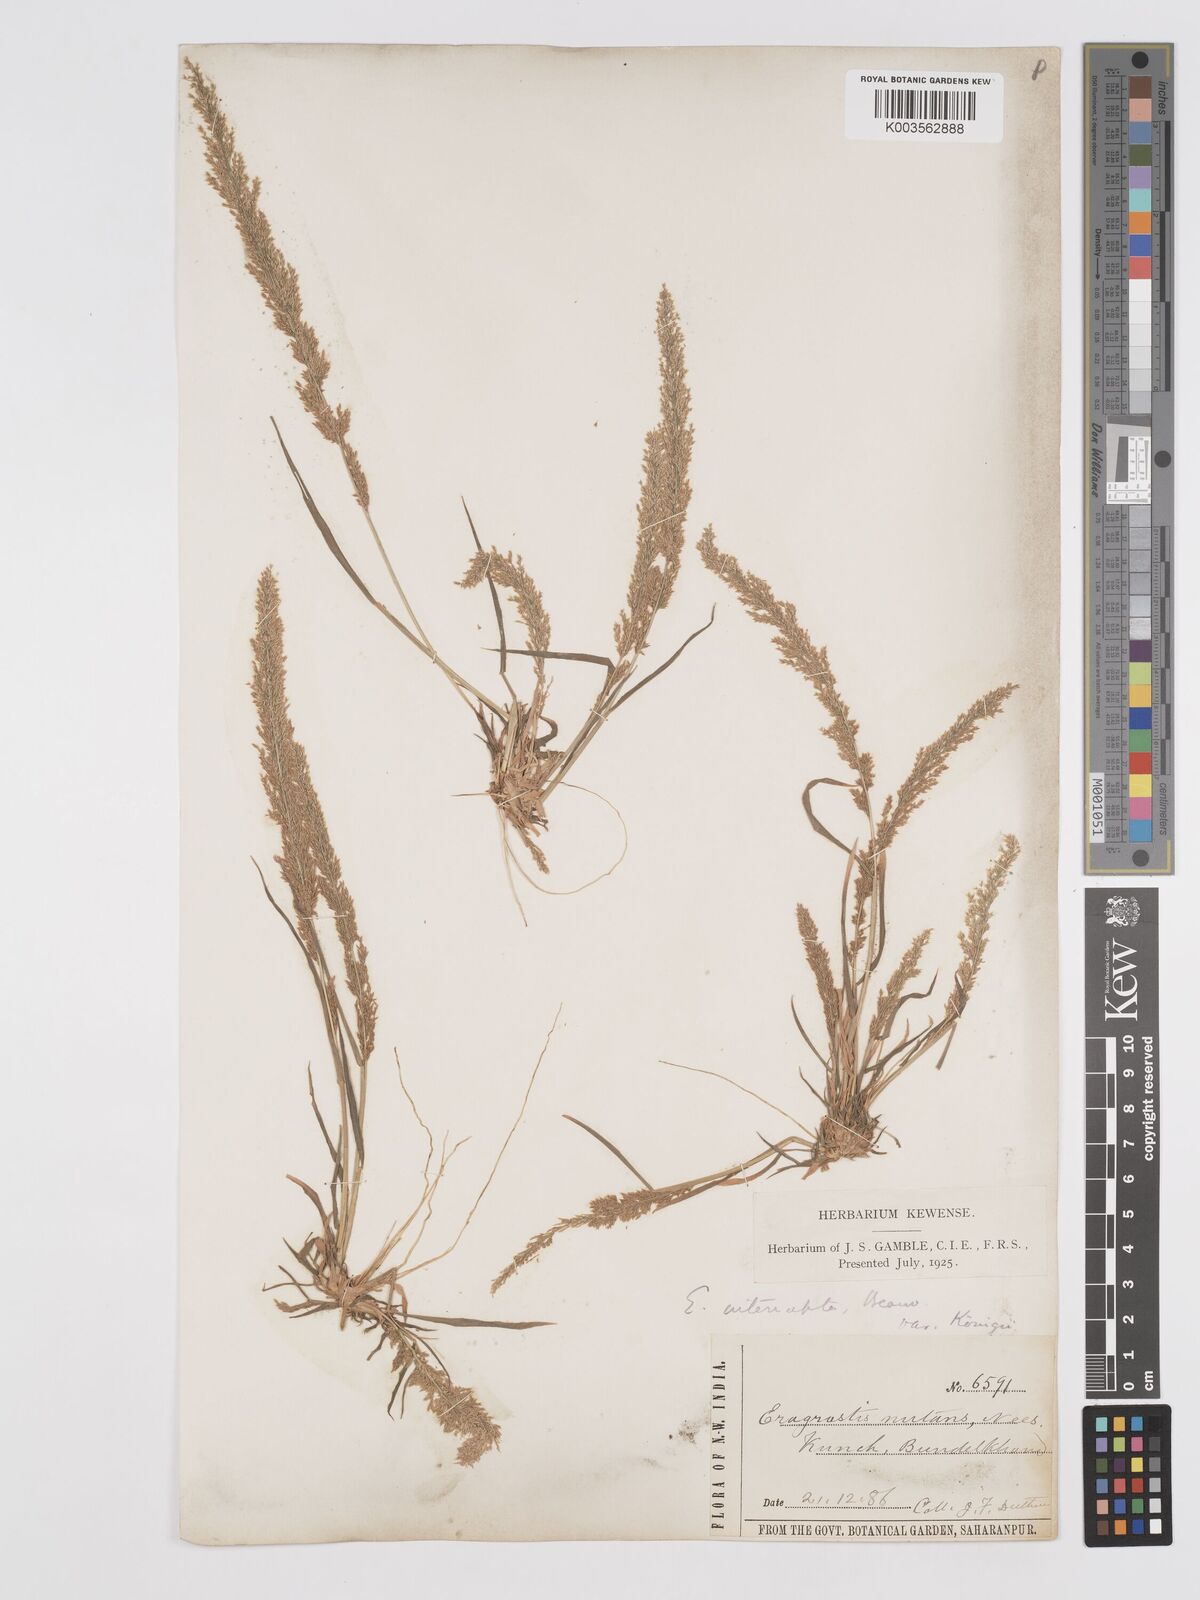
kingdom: Plantae
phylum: Tracheophyta
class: Liliopsida
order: Poales
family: Poaceae
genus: Eragrostis
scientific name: Eragrostis japonica
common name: Pond lovegrass
